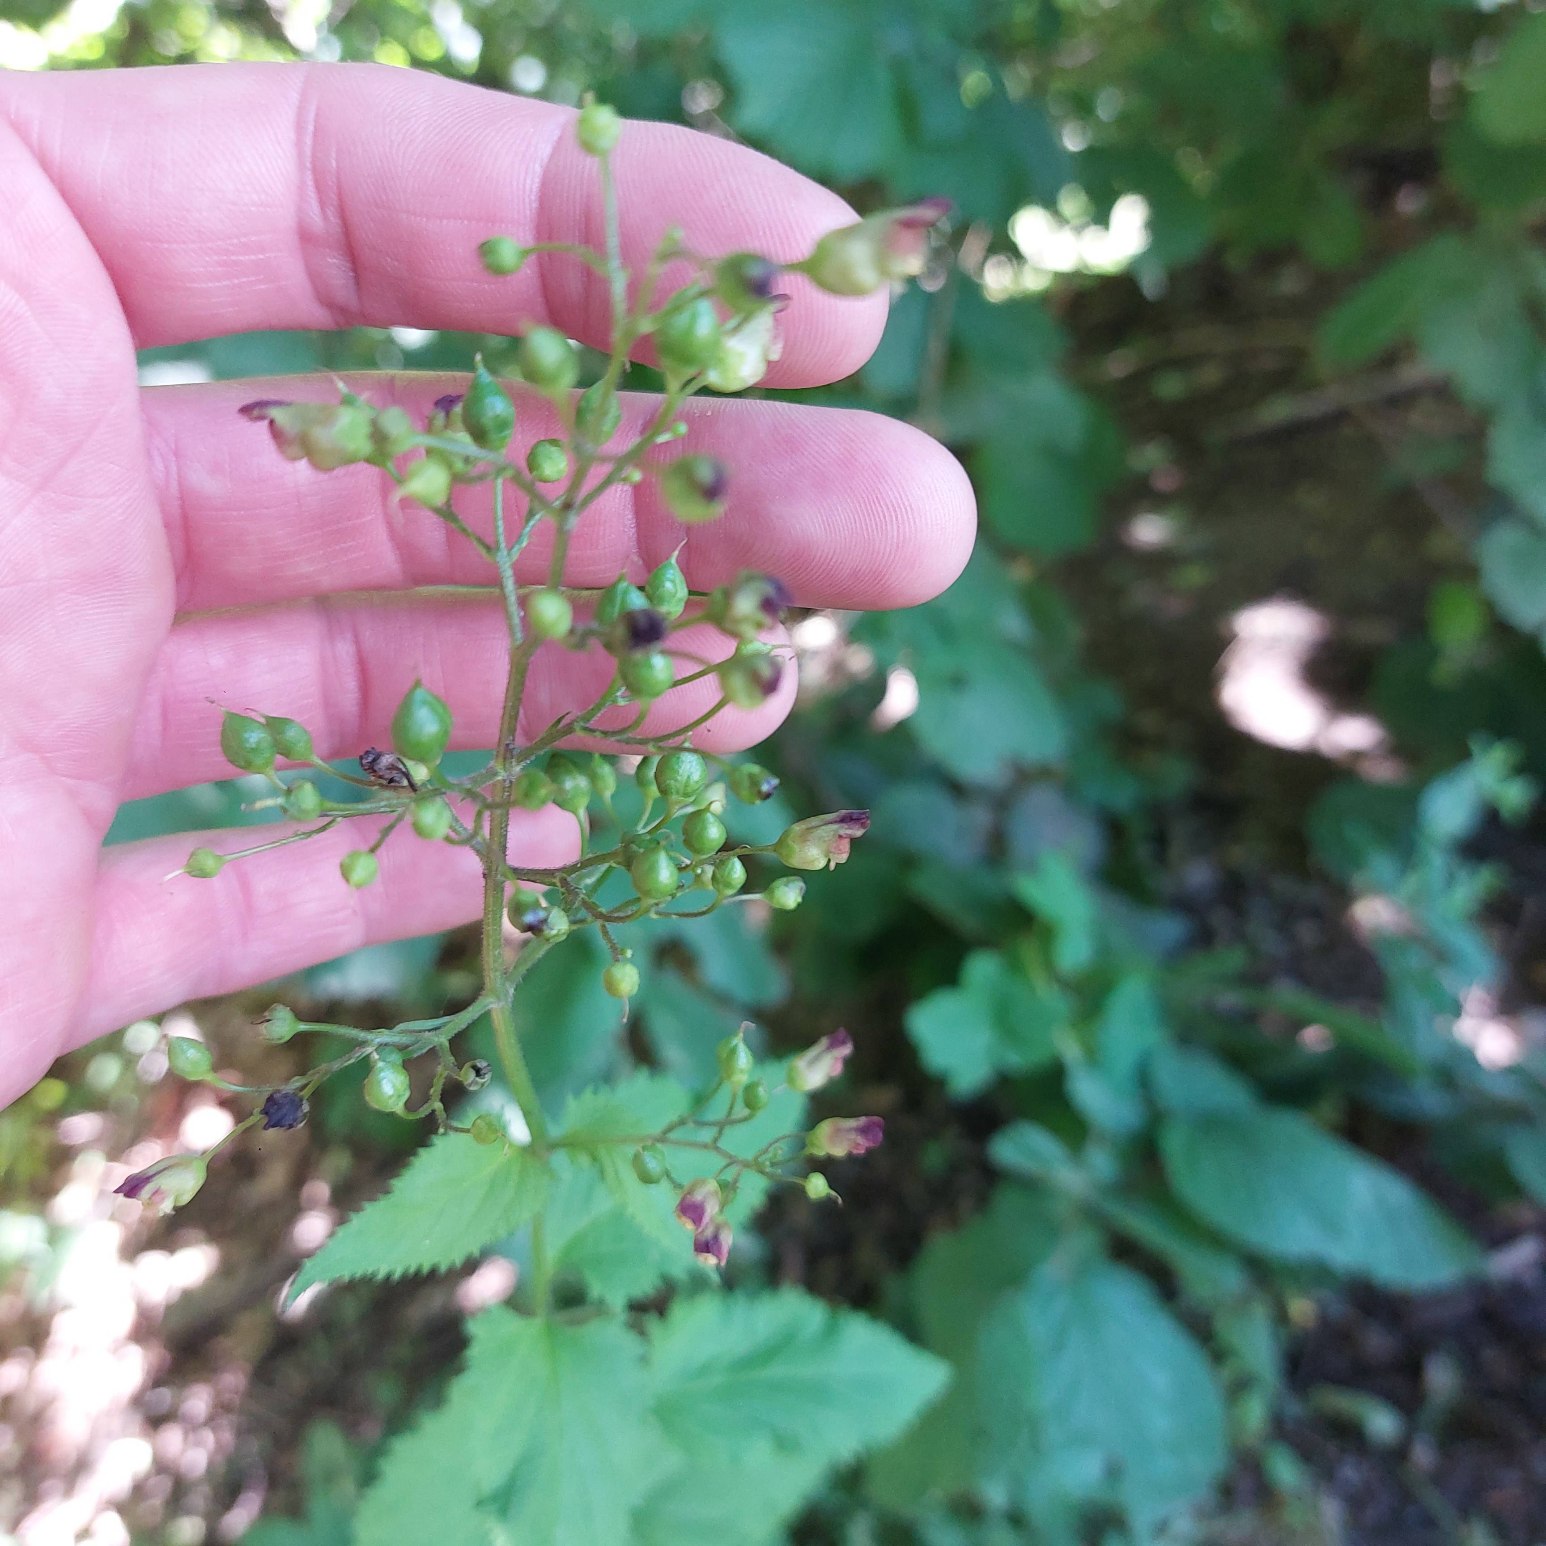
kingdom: Plantae
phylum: Tracheophyta
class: Magnoliopsida
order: Lamiales
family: Scrophulariaceae
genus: Scrophularia
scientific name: Scrophularia nodosa
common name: Knoldet brunrod
